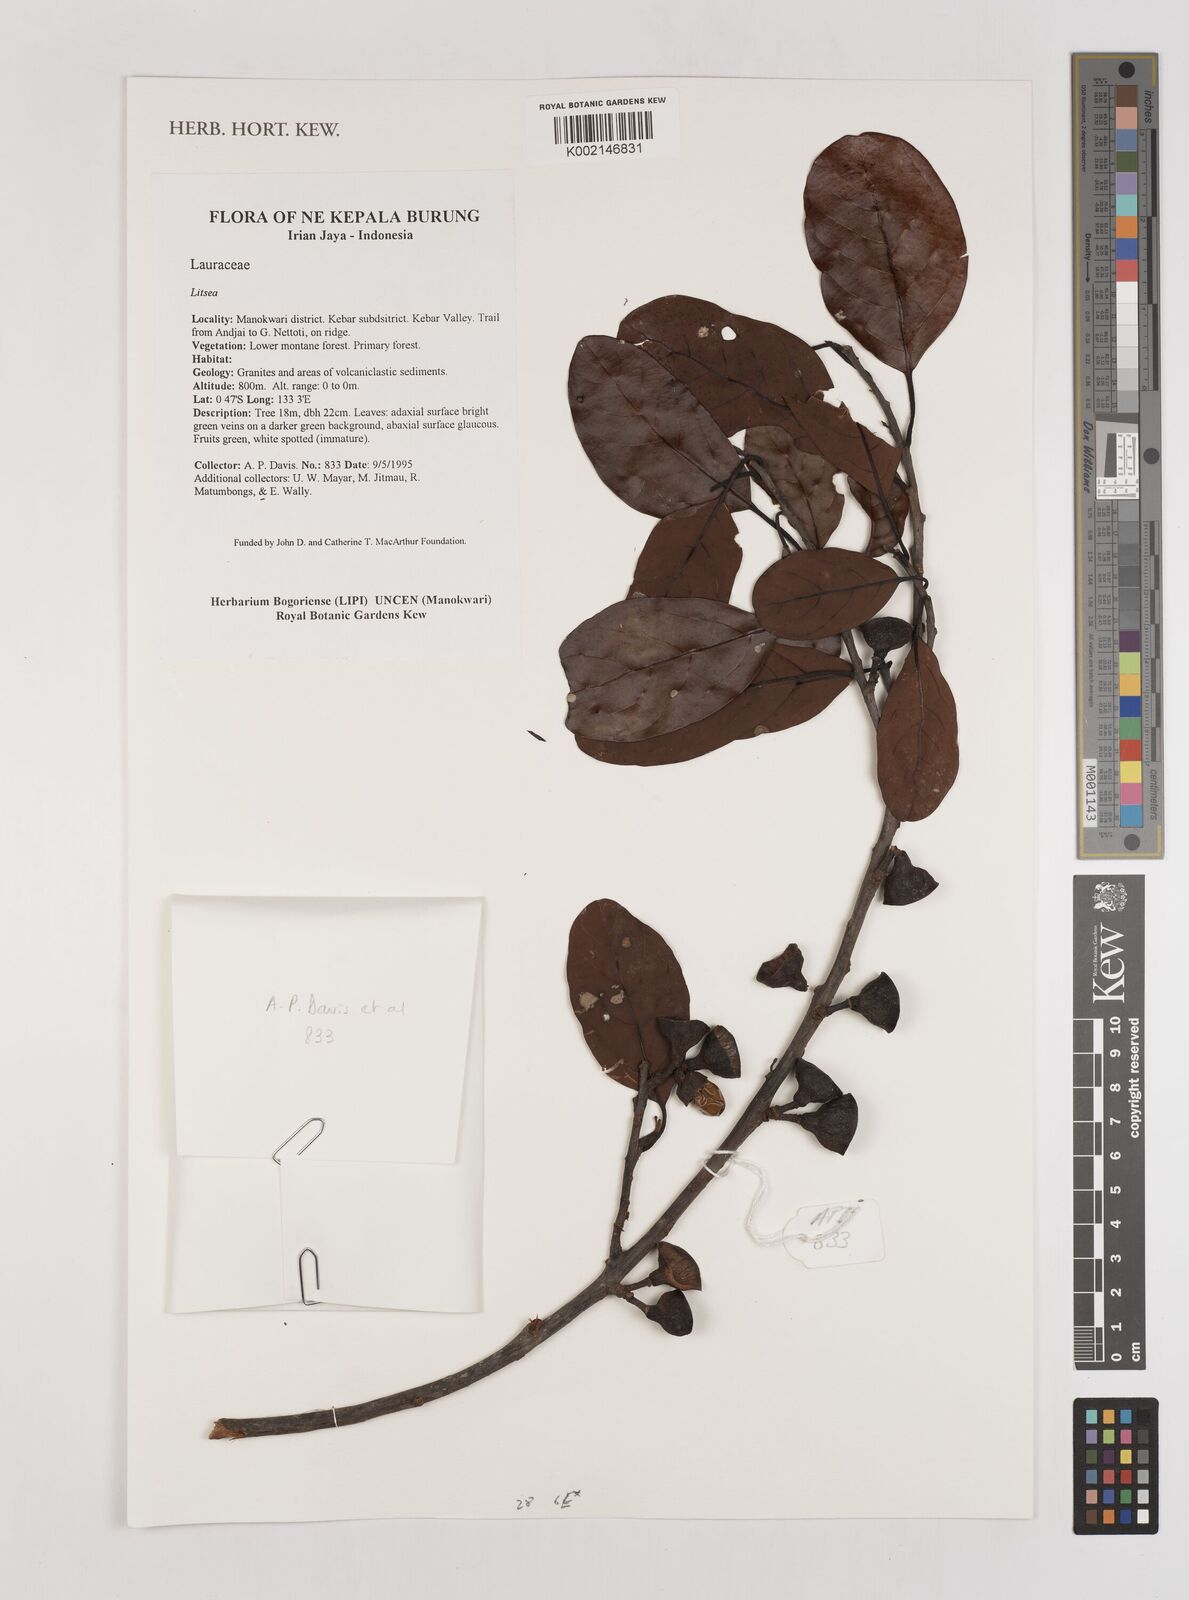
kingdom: Plantae
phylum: Tracheophyta
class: Magnoliopsida
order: Laurales
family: Lauraceae
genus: Litsea
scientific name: Litsea
